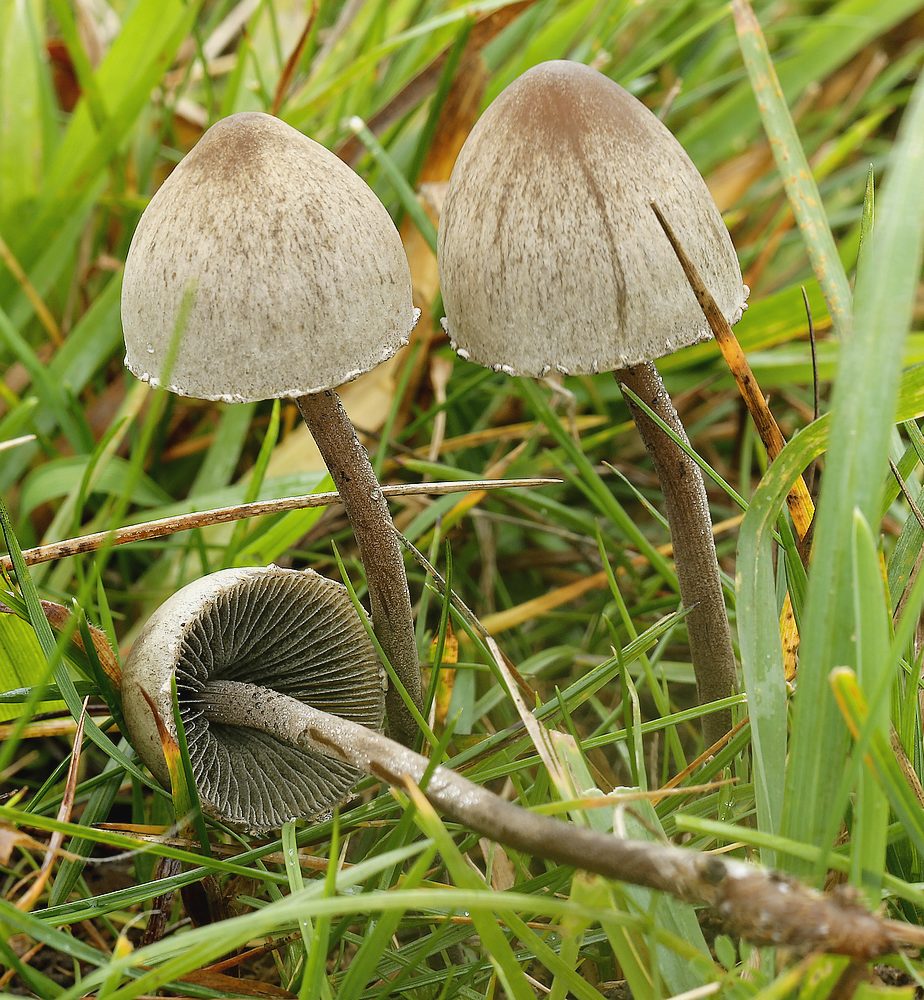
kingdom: Fungi
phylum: Basidiomycota
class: Agaricomycetes
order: Agaricales
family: Bolbitiaceae
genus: Panaeolus
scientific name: Panaeolus papilionaceus
